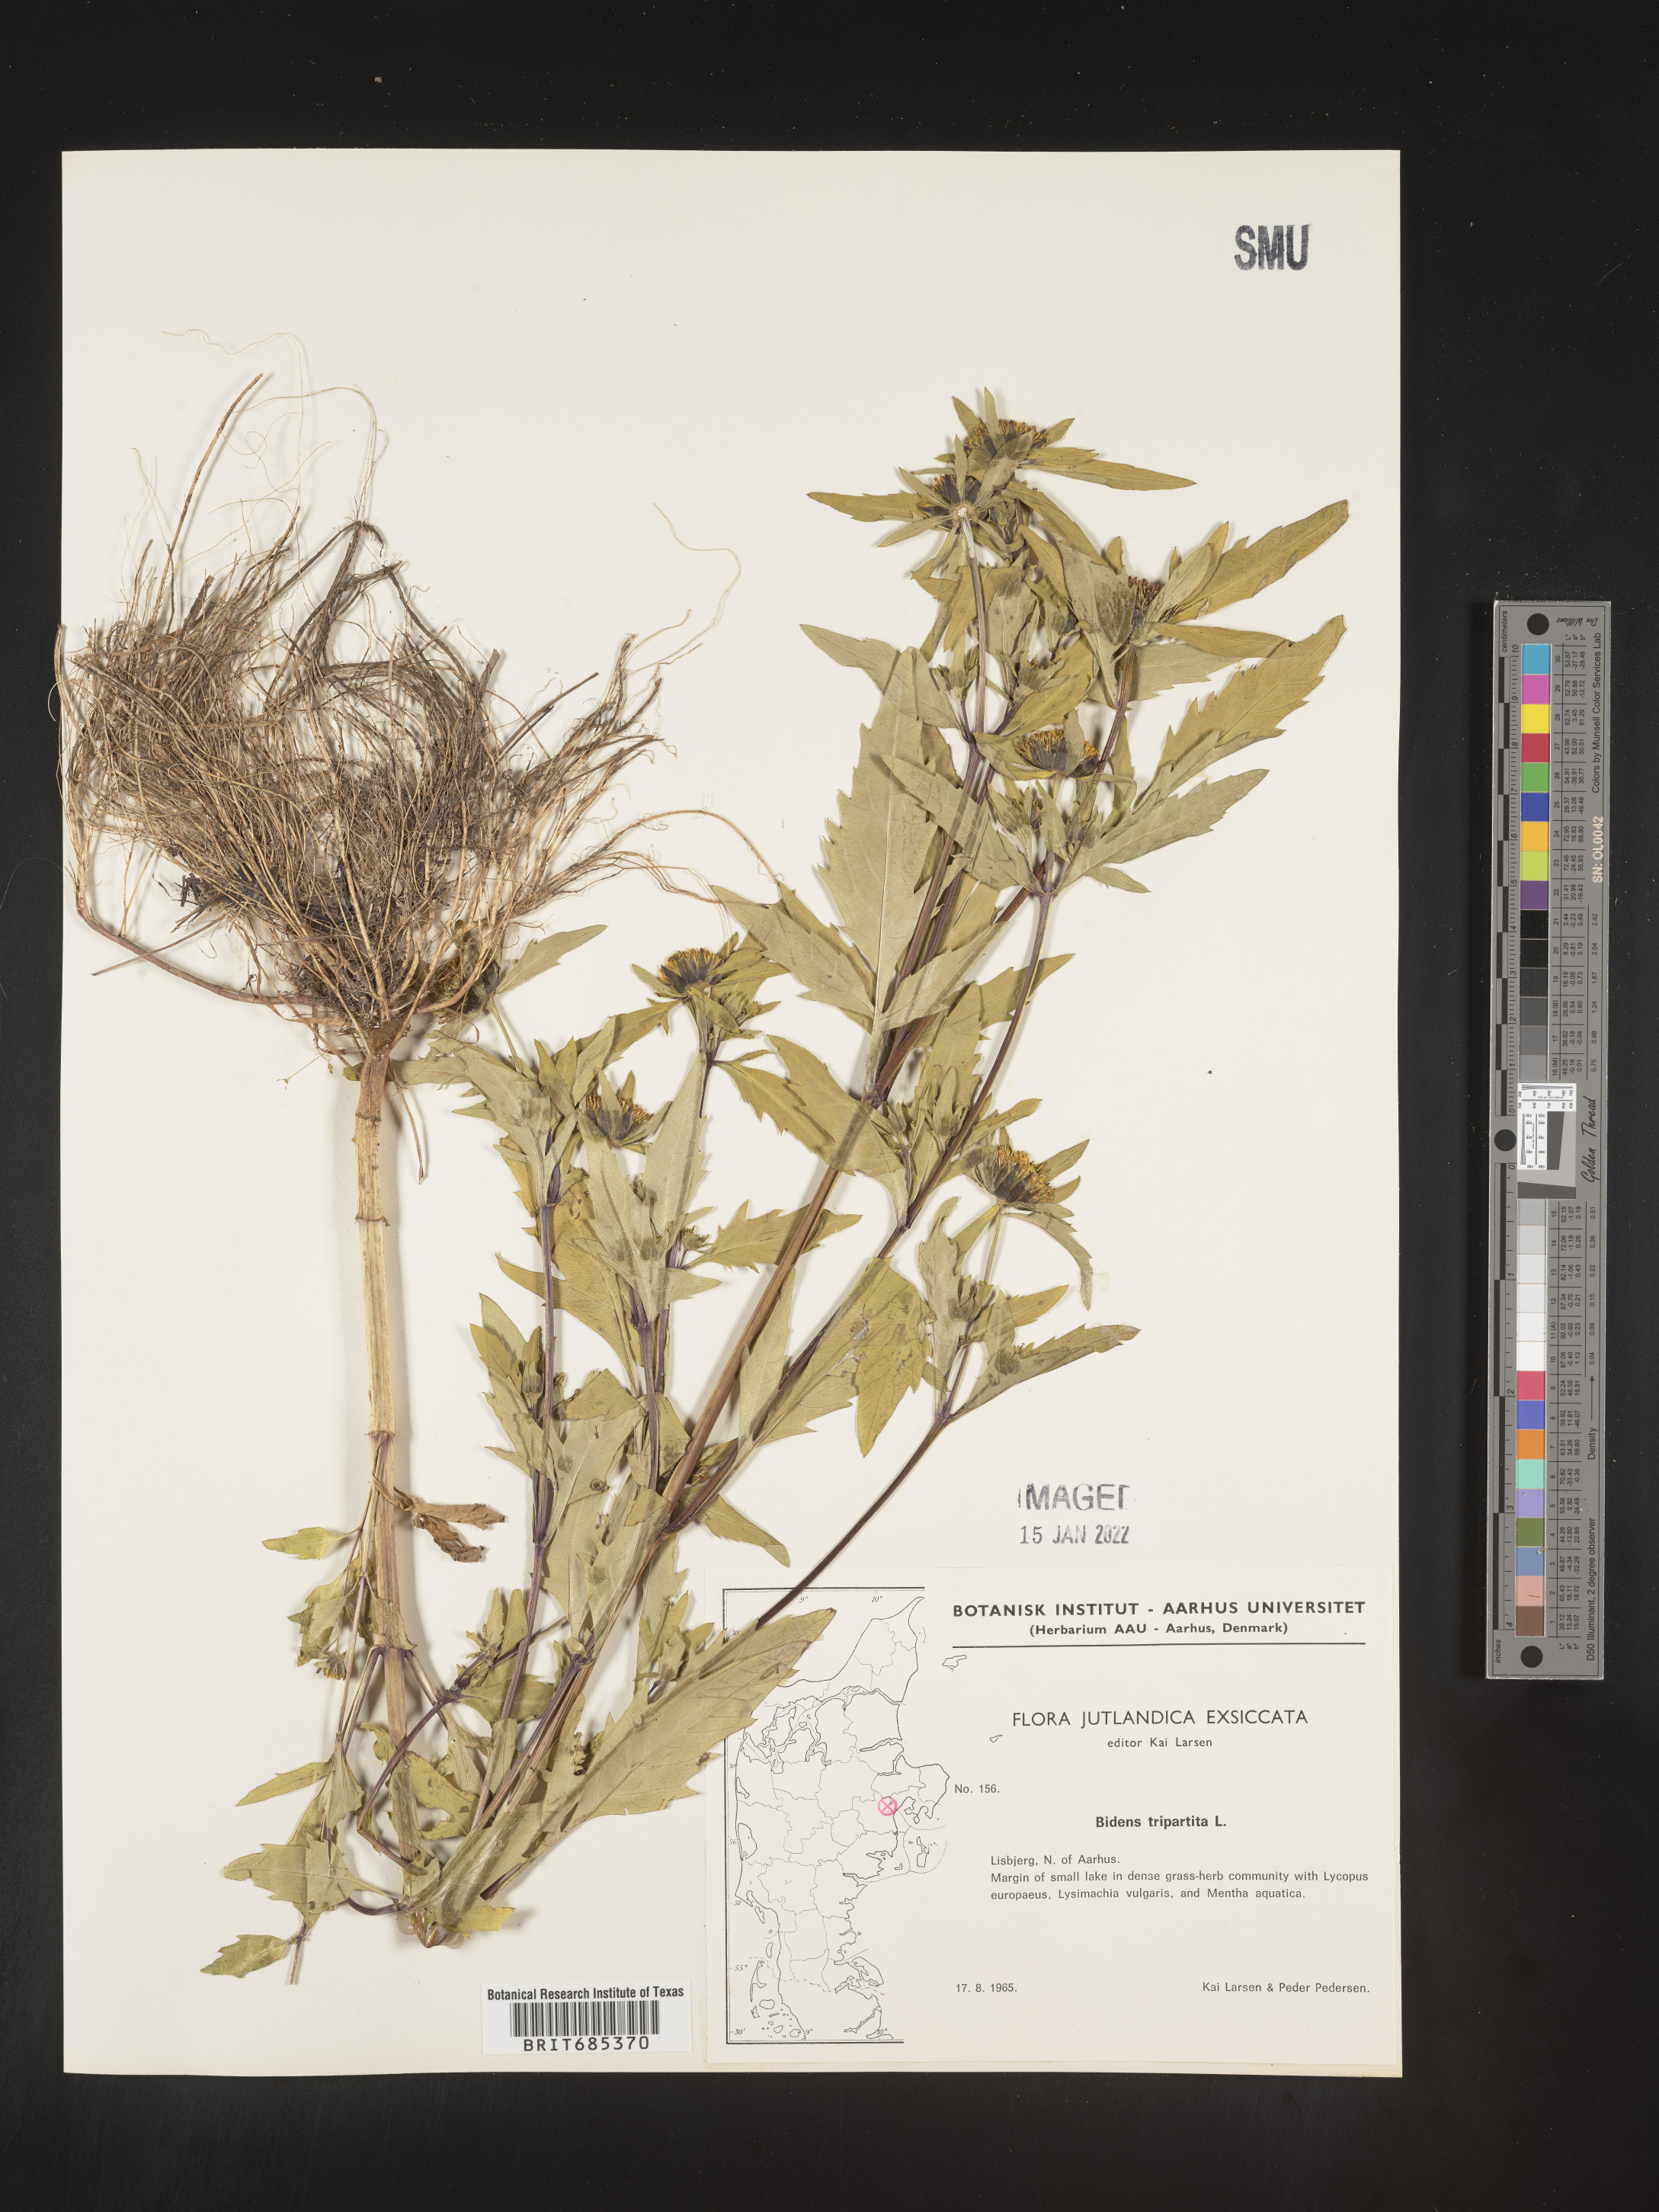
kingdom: Plantae
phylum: Tracheophyta
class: Magnoliopsida
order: Asterales
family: Asteraceae
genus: Bidens
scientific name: Bidens
